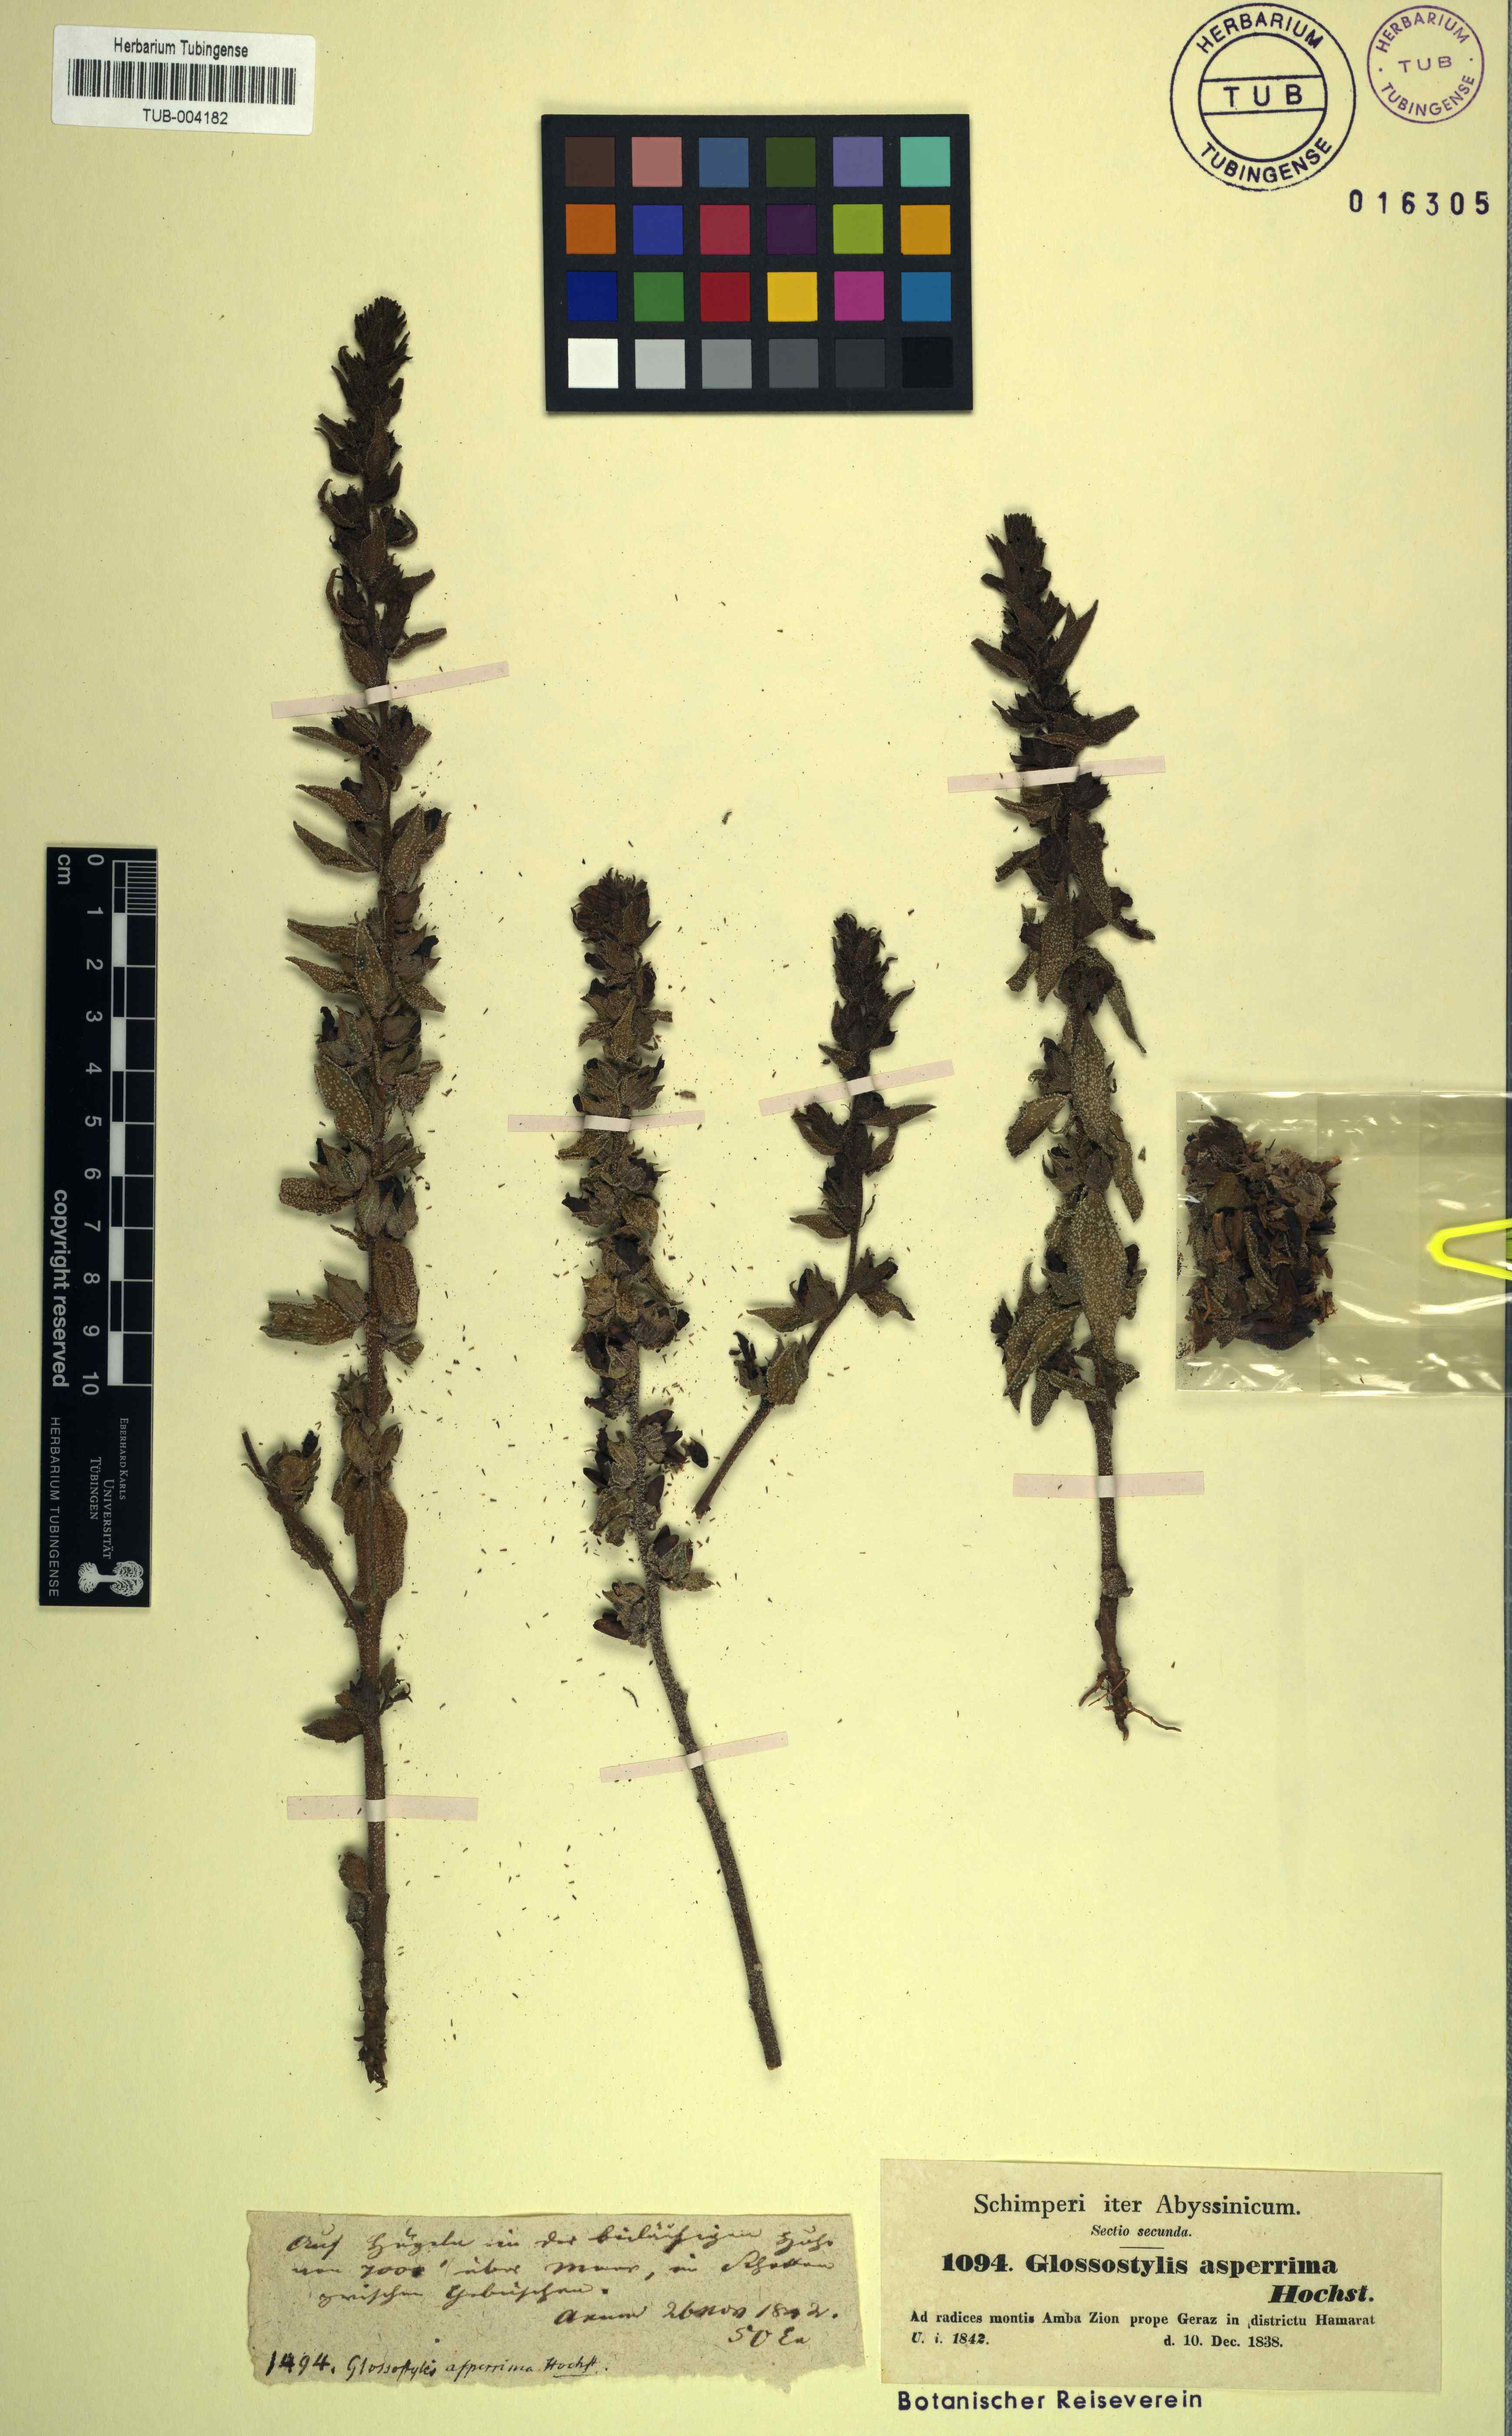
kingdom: Plantae
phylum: Tracheophyta
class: Magnoliopsida
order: Lamiales
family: Orobanchaceae
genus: Alectra
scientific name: Alectra asperrima
